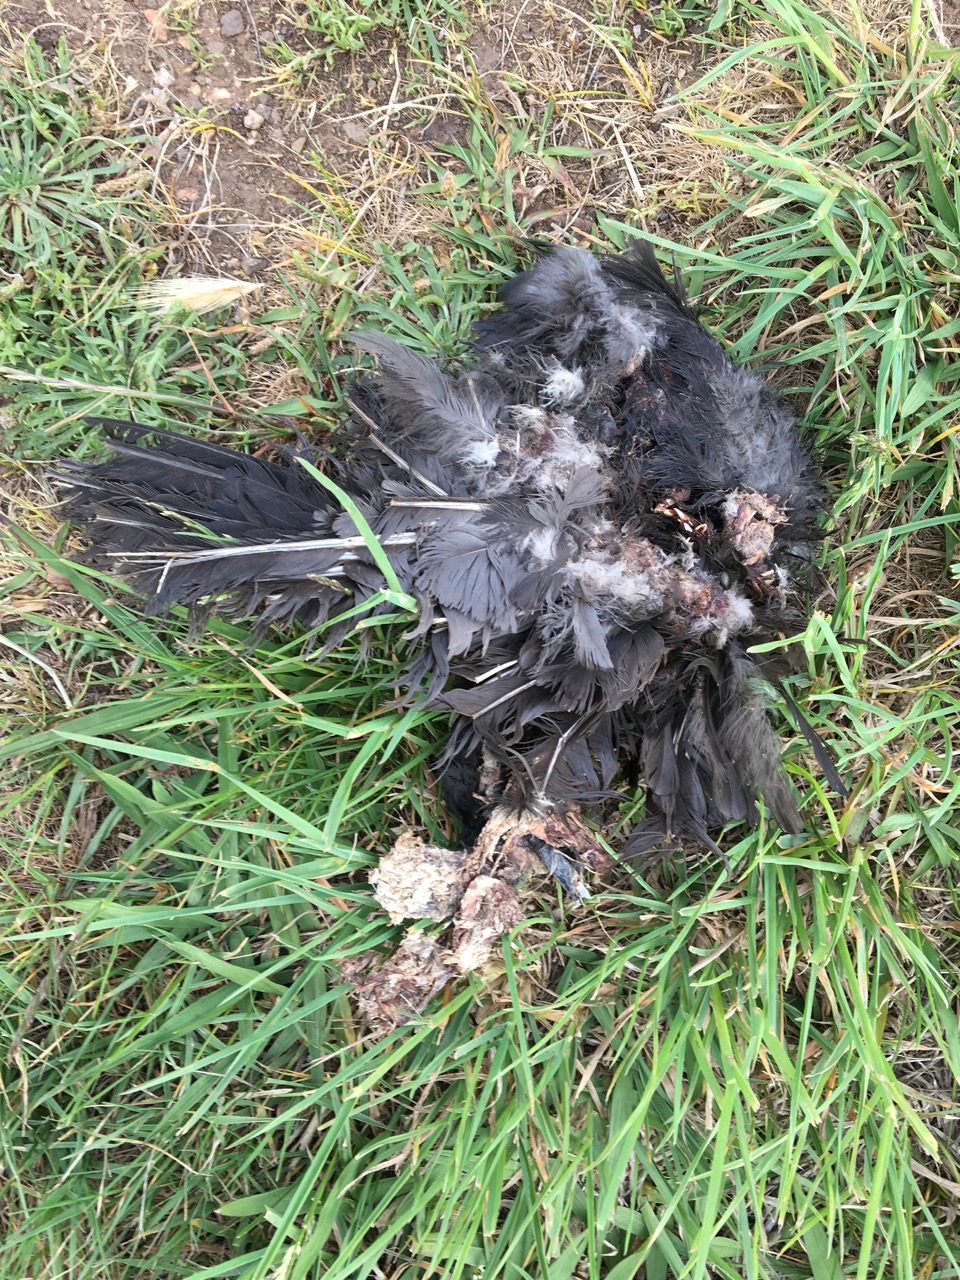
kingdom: Animalia
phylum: Chordata
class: Aves
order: Passeriformes
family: Corvidae
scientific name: Corvidae
